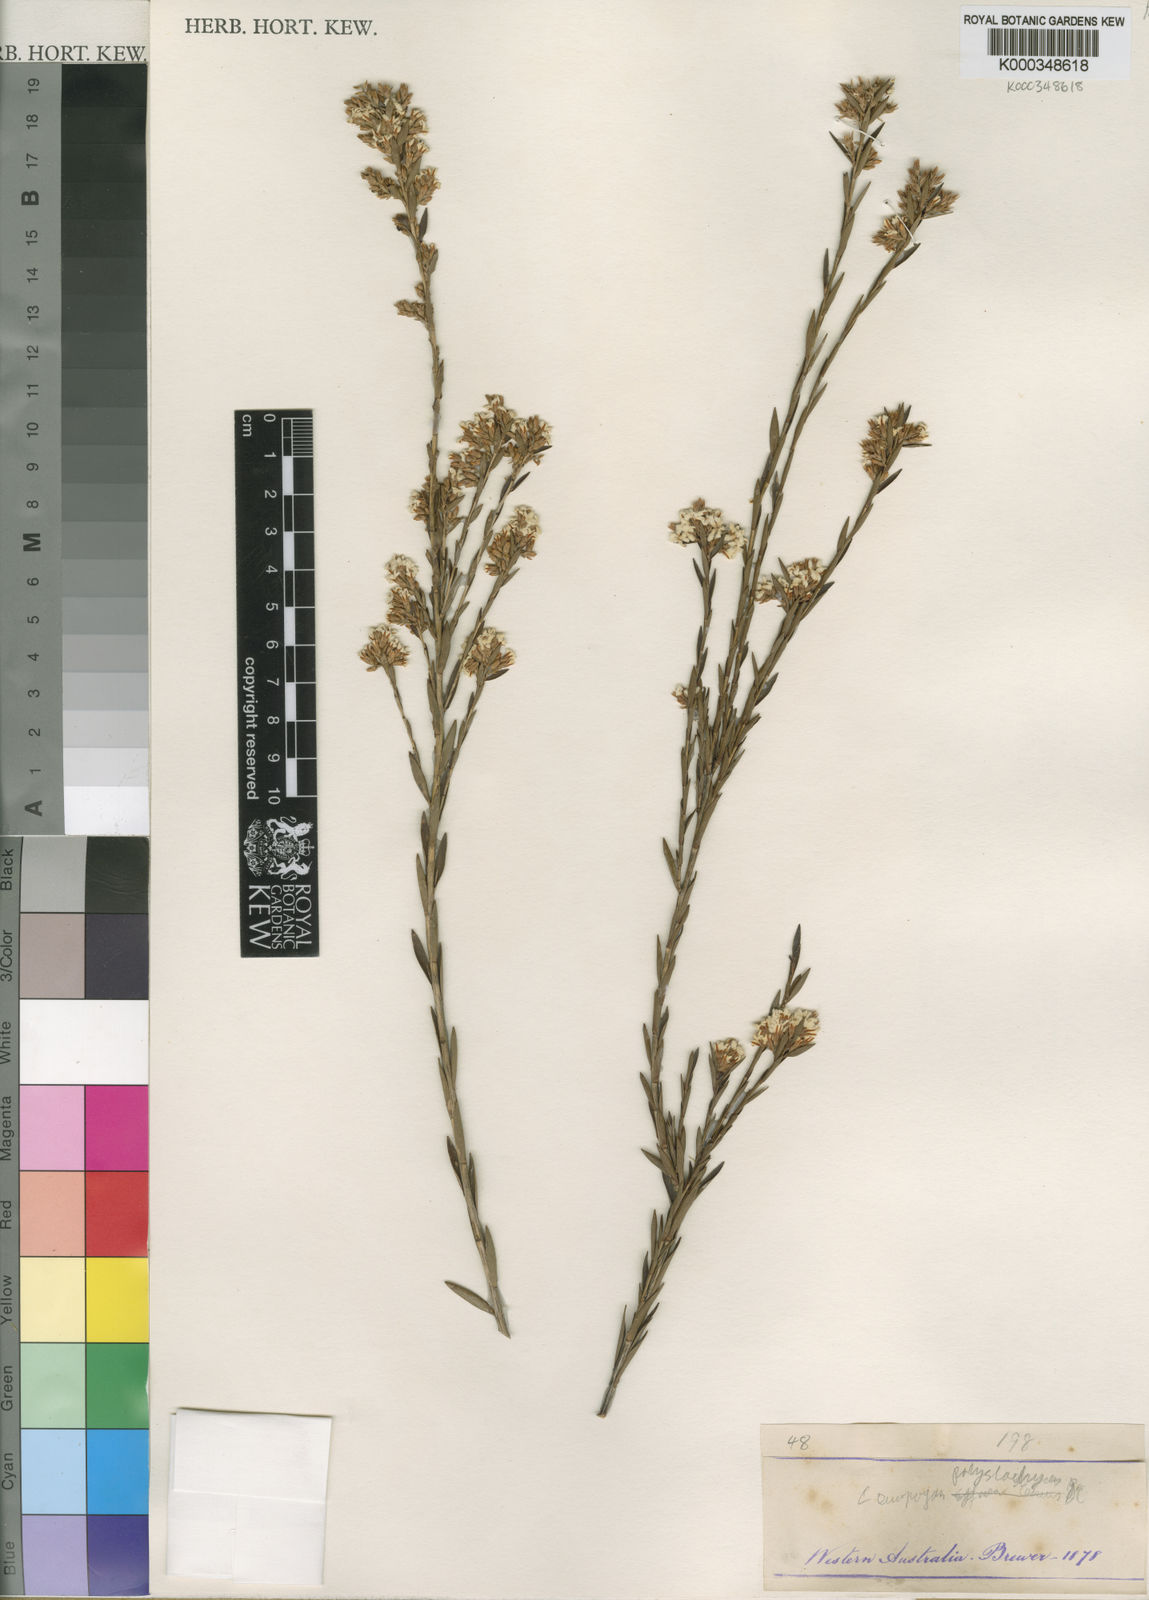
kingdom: Plantae
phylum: Tracheophyta
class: Magnoliopsida
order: Ericales
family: Ericaceae
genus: Leucopogon
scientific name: Leucopogon polystachyus
